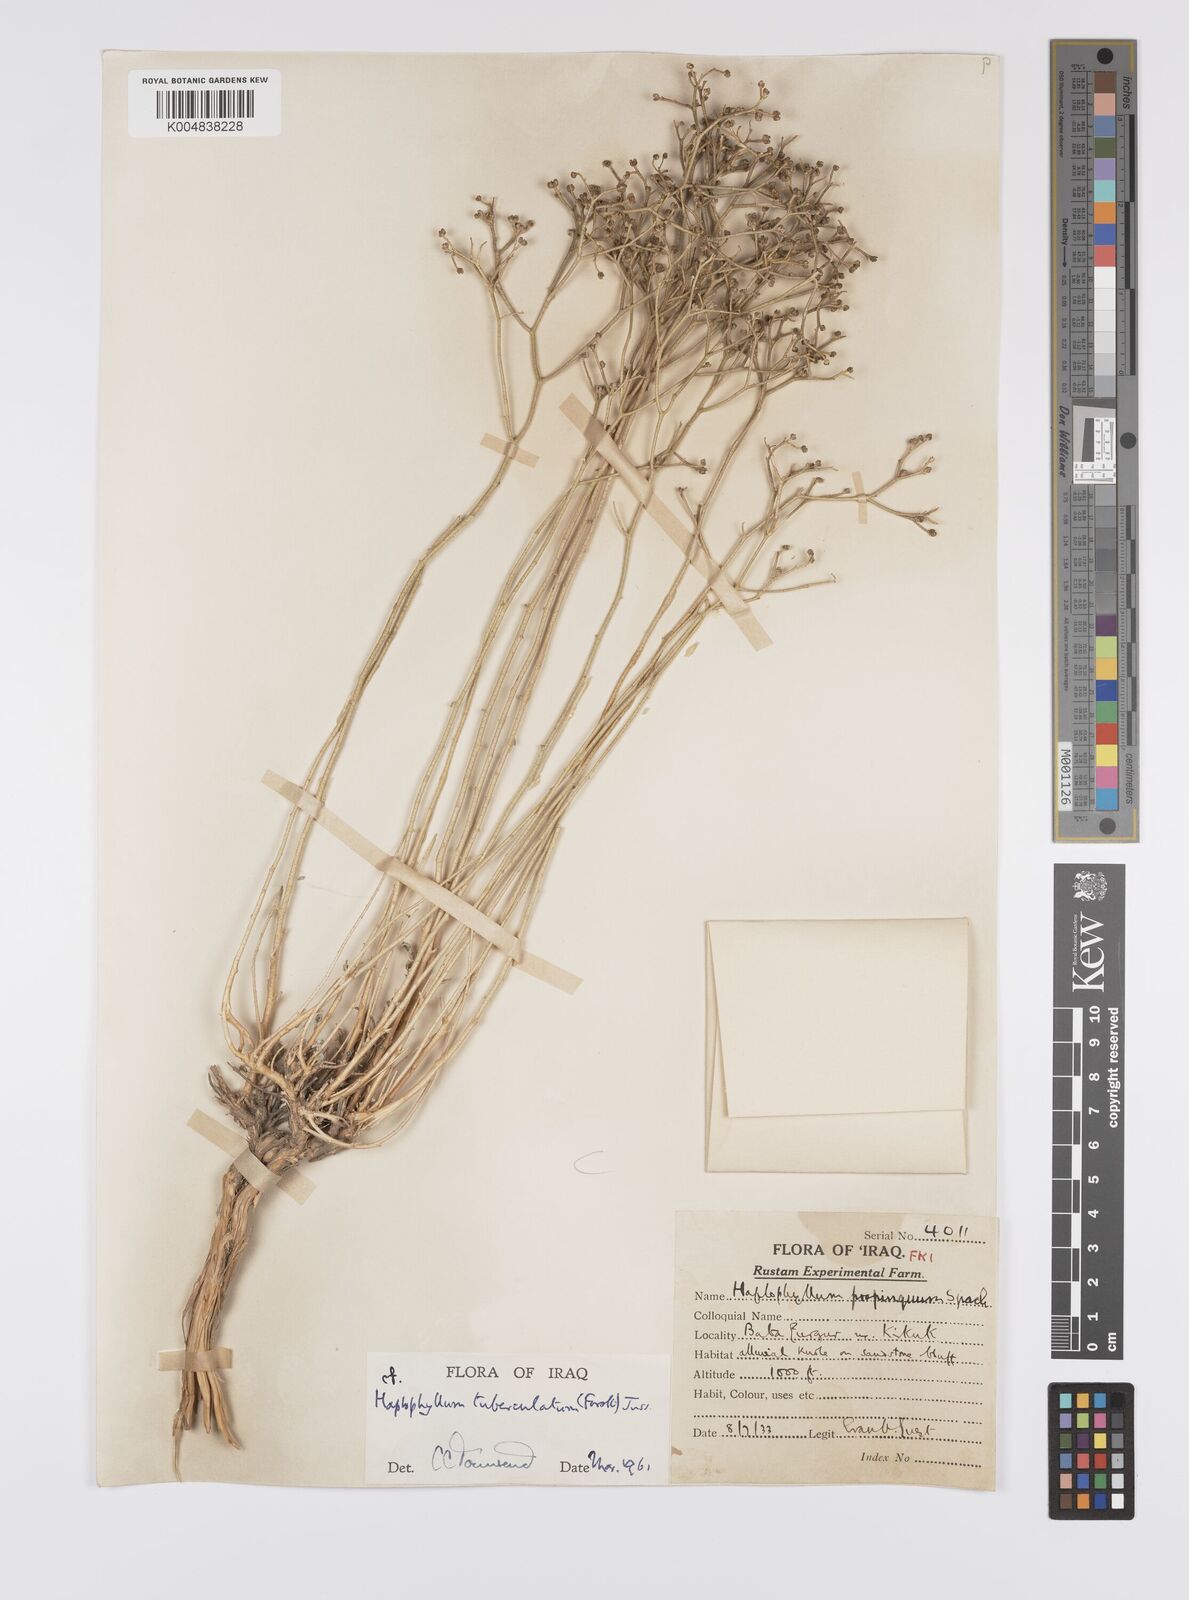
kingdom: Plantae
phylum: Tracheophyta
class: Magnoliopsida
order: Sapindales
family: Rutaceae
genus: Haplophyllum
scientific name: Haplophyllum tuberculatum
